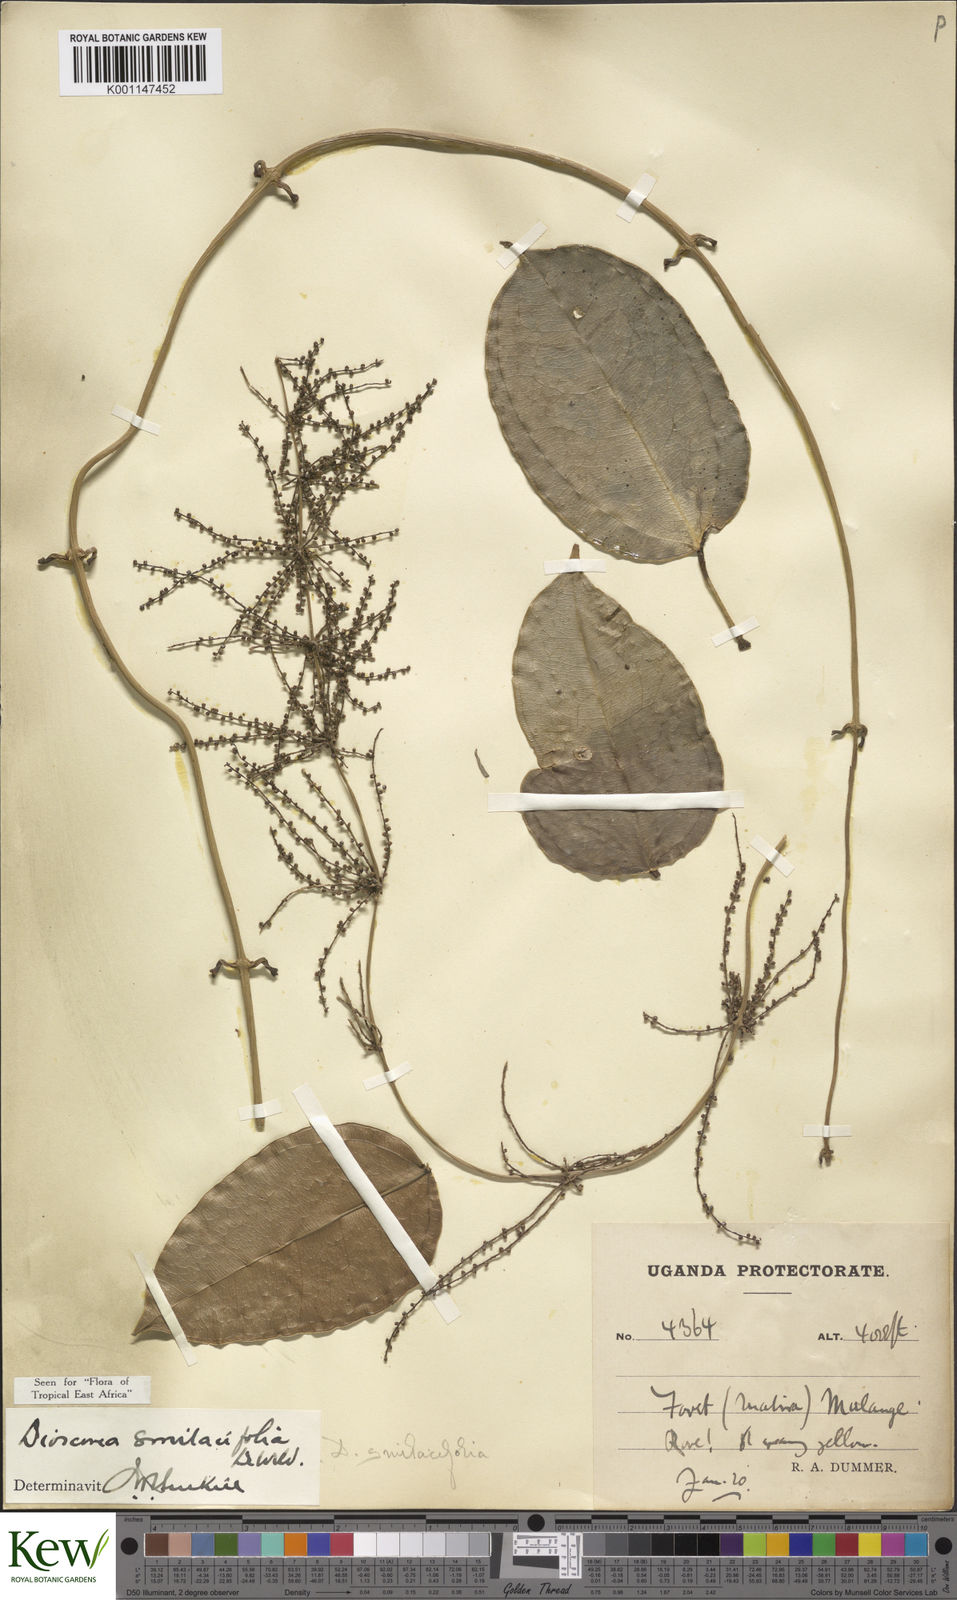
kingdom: Plantae
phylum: Tracheophyta
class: Liliopsida
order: Dioscoreales
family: Dioscoreaceae
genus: Dioscorea
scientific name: Dioscorea smilacifolia
